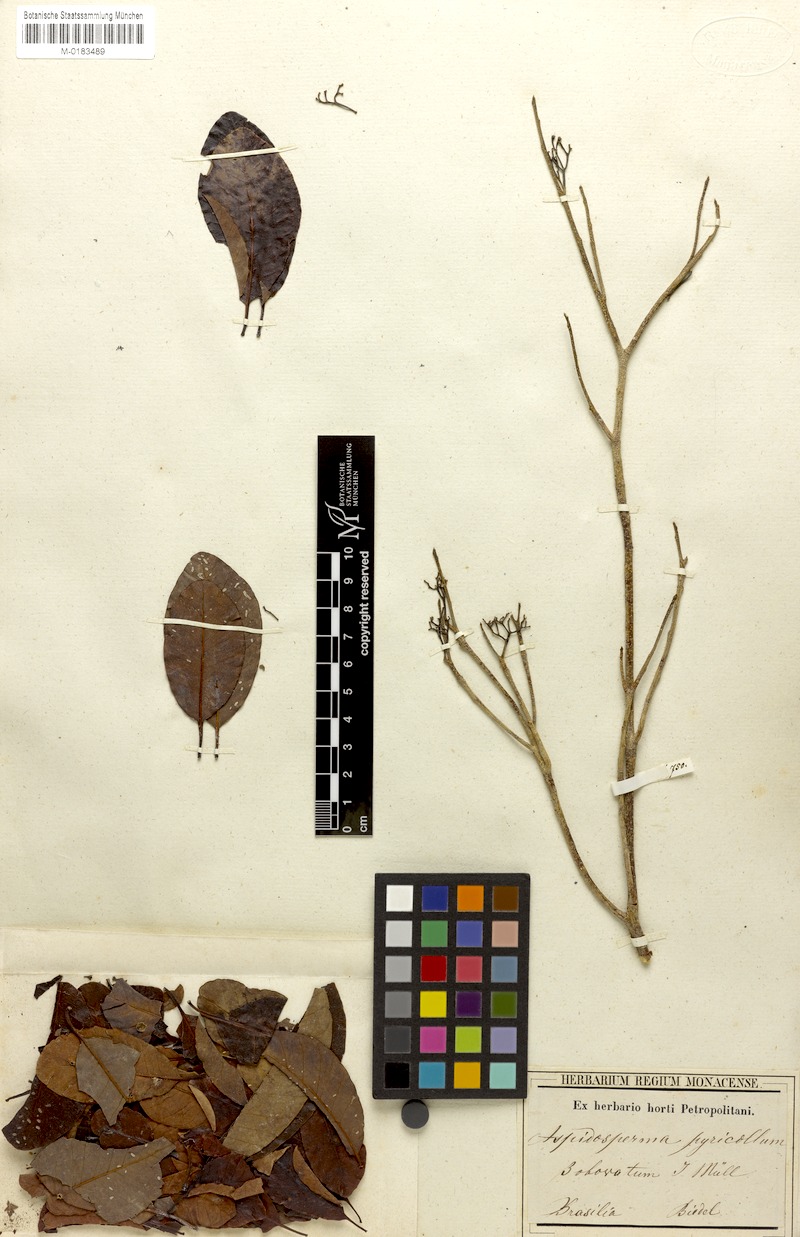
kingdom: Plantae
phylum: Tracheophyta
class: Magnoliopsida
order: Gentianales
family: Apocynaceae
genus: Aspidosperma
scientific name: Aspidosperma pyricollum
